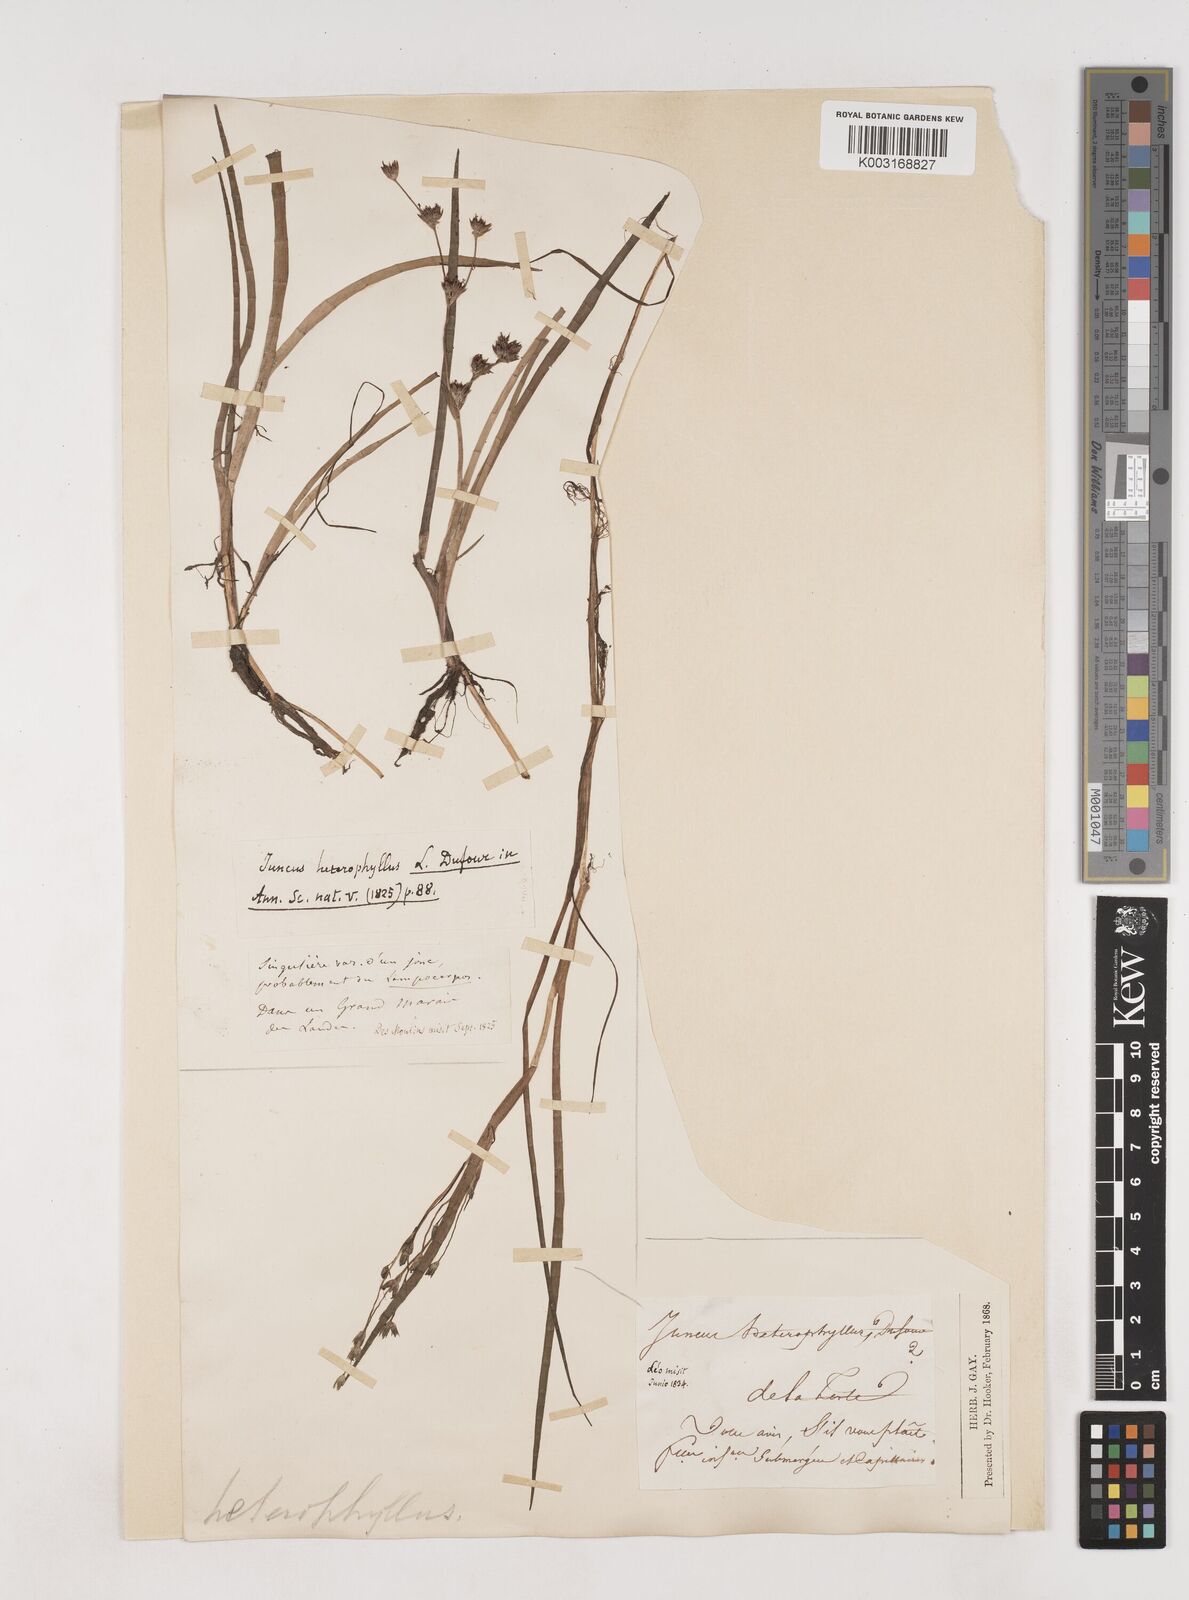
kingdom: Plantae
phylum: Tracheophyta
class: Liliopsida
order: Poales
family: Juncaceae
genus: Juncus
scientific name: Juncus heterophyllus
